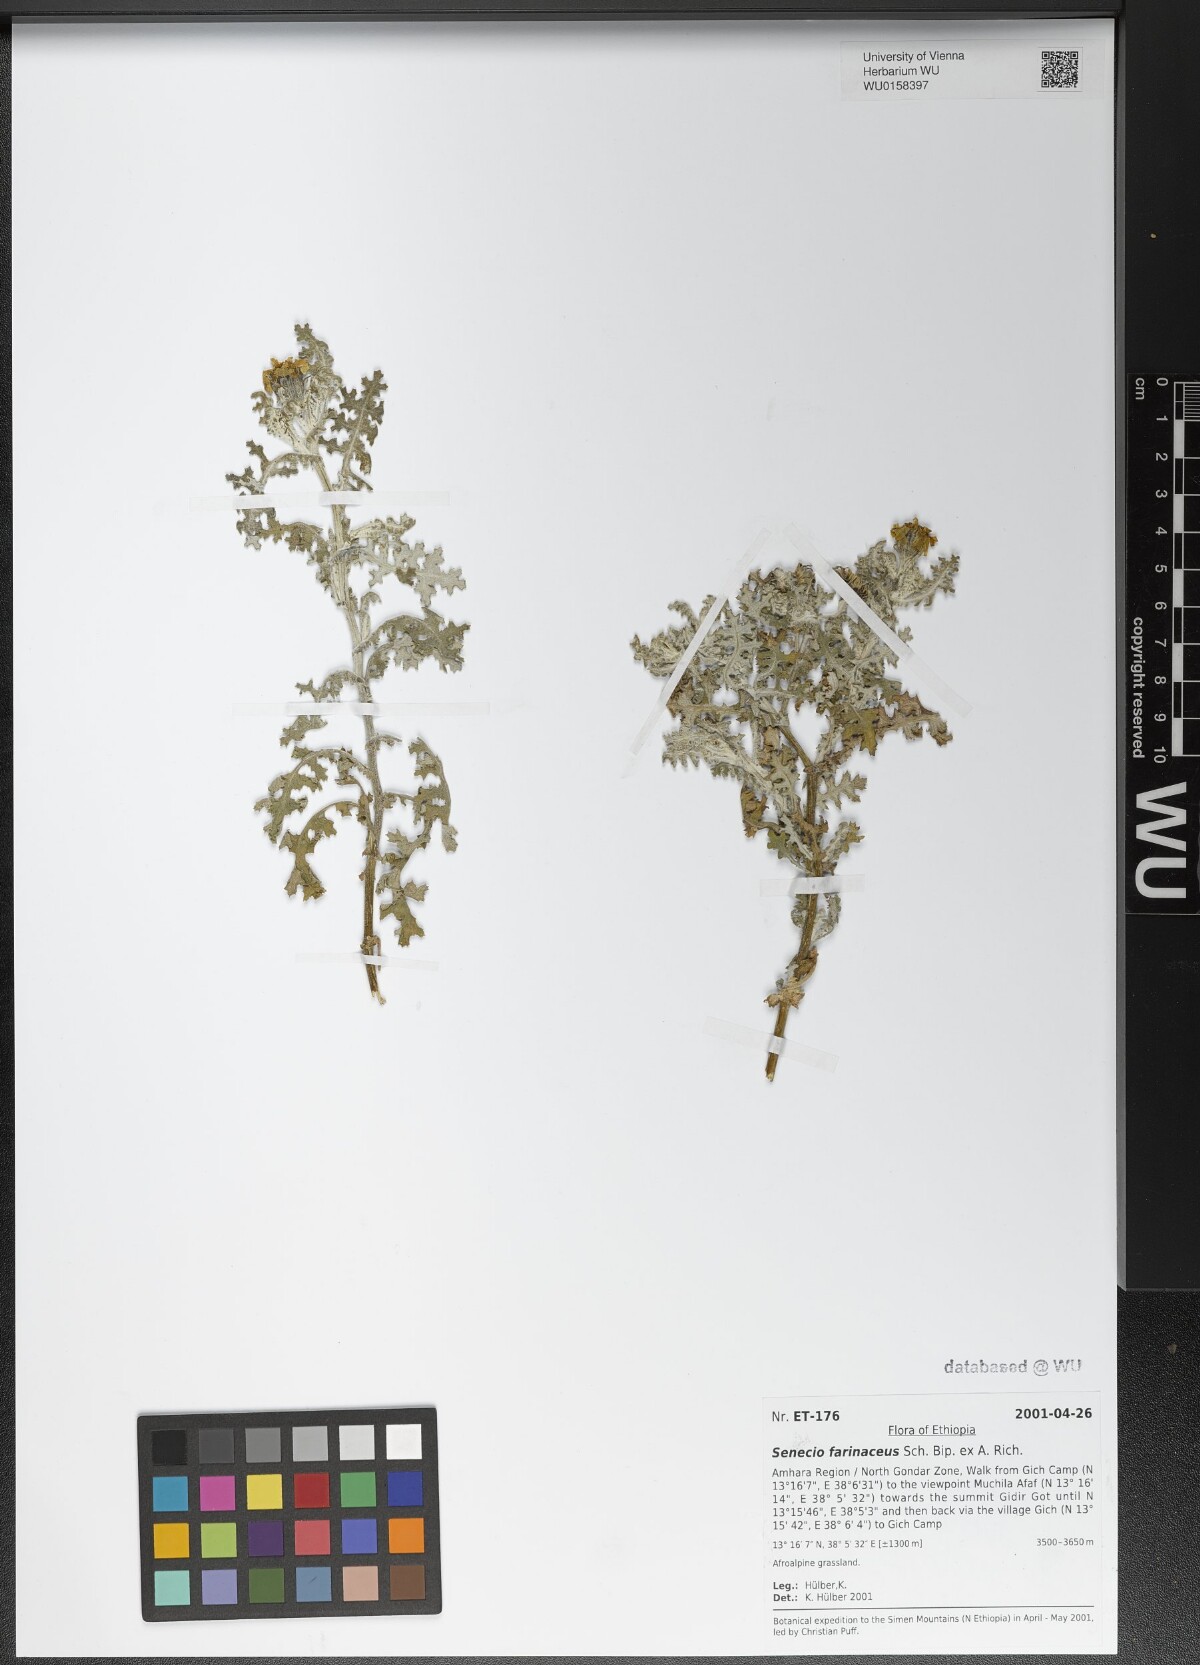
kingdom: Plantae
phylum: Tracheophyta
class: Magnoliopsida
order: Asterales
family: Asteraceae
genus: Senecio
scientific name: Senecio farinaceus
